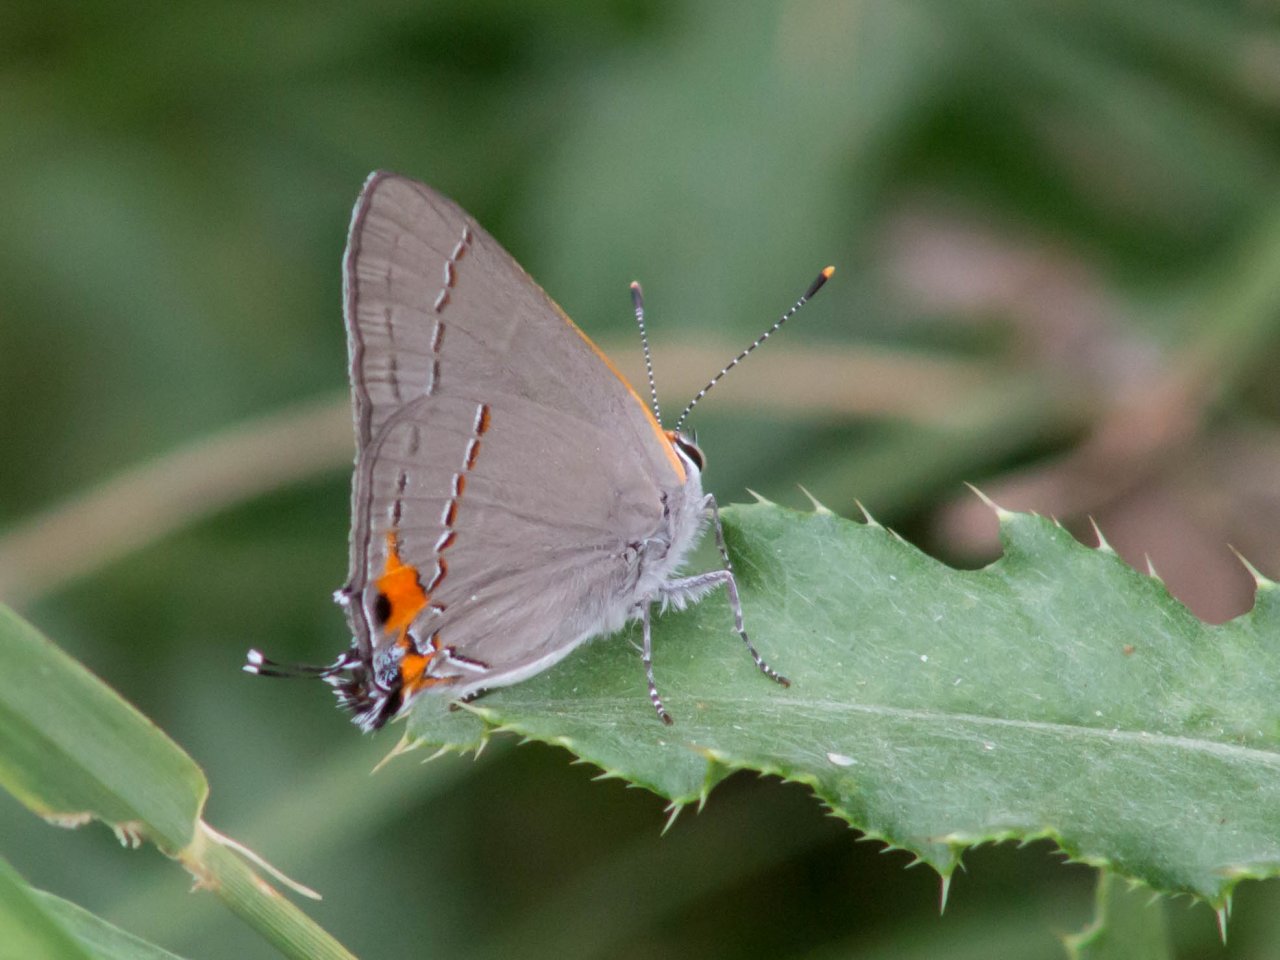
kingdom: Animalia
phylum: Arthropoda
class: Insecta
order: Lepidoptera
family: Lycaenidae
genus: Strymon
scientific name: Strymon melinus
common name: Gray Hairstreak
